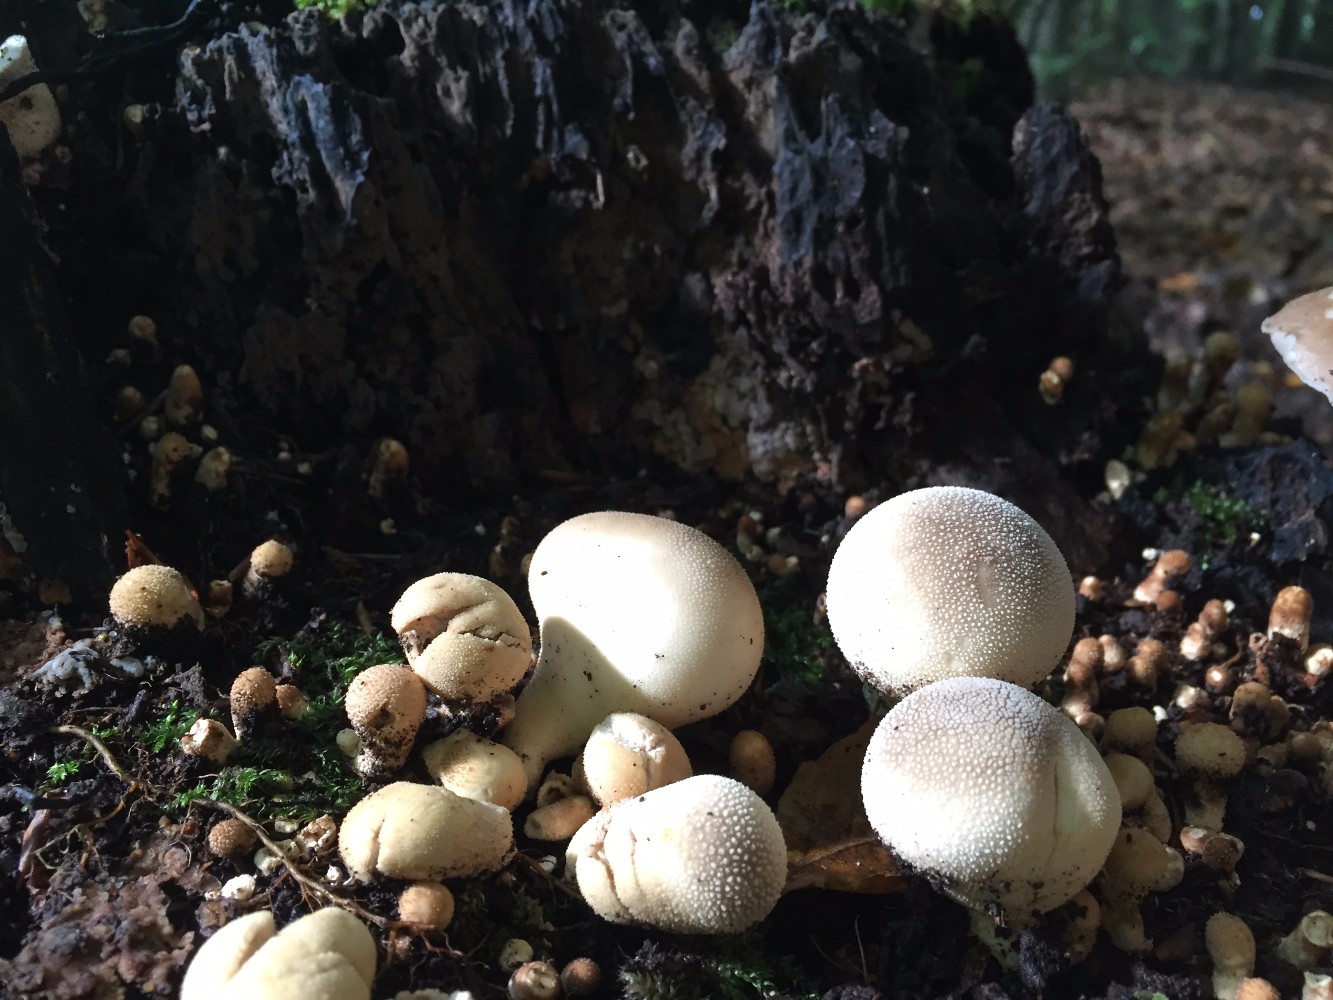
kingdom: Fungi
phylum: Basidiomycota
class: Agaricomycetes
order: Agaricales
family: Lycoperdaceae
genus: Apioperdon
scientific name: Apioperdon pyriforme
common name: pære-støvbold
